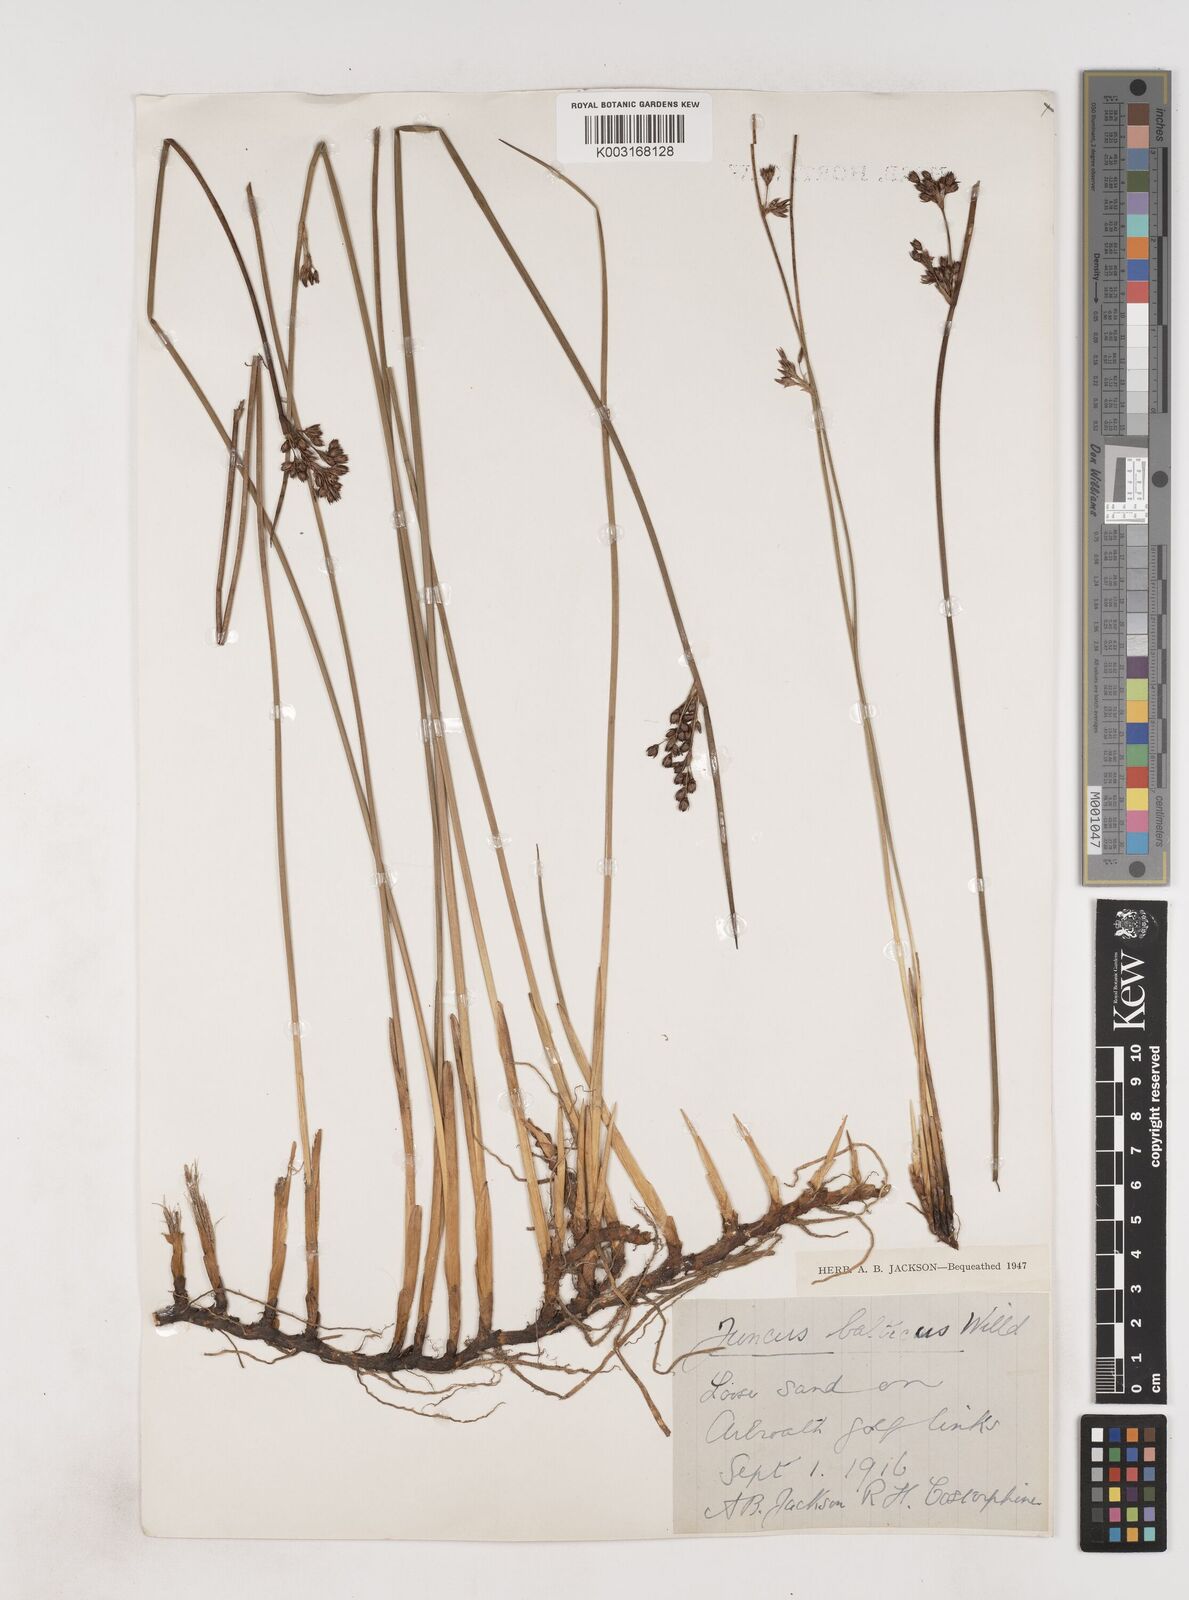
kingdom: Plantae
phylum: Tracheophyta
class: Liliopsida
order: Poales
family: Juncaceae
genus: Juncus
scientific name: Juncus balticus
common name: Baltic rush
